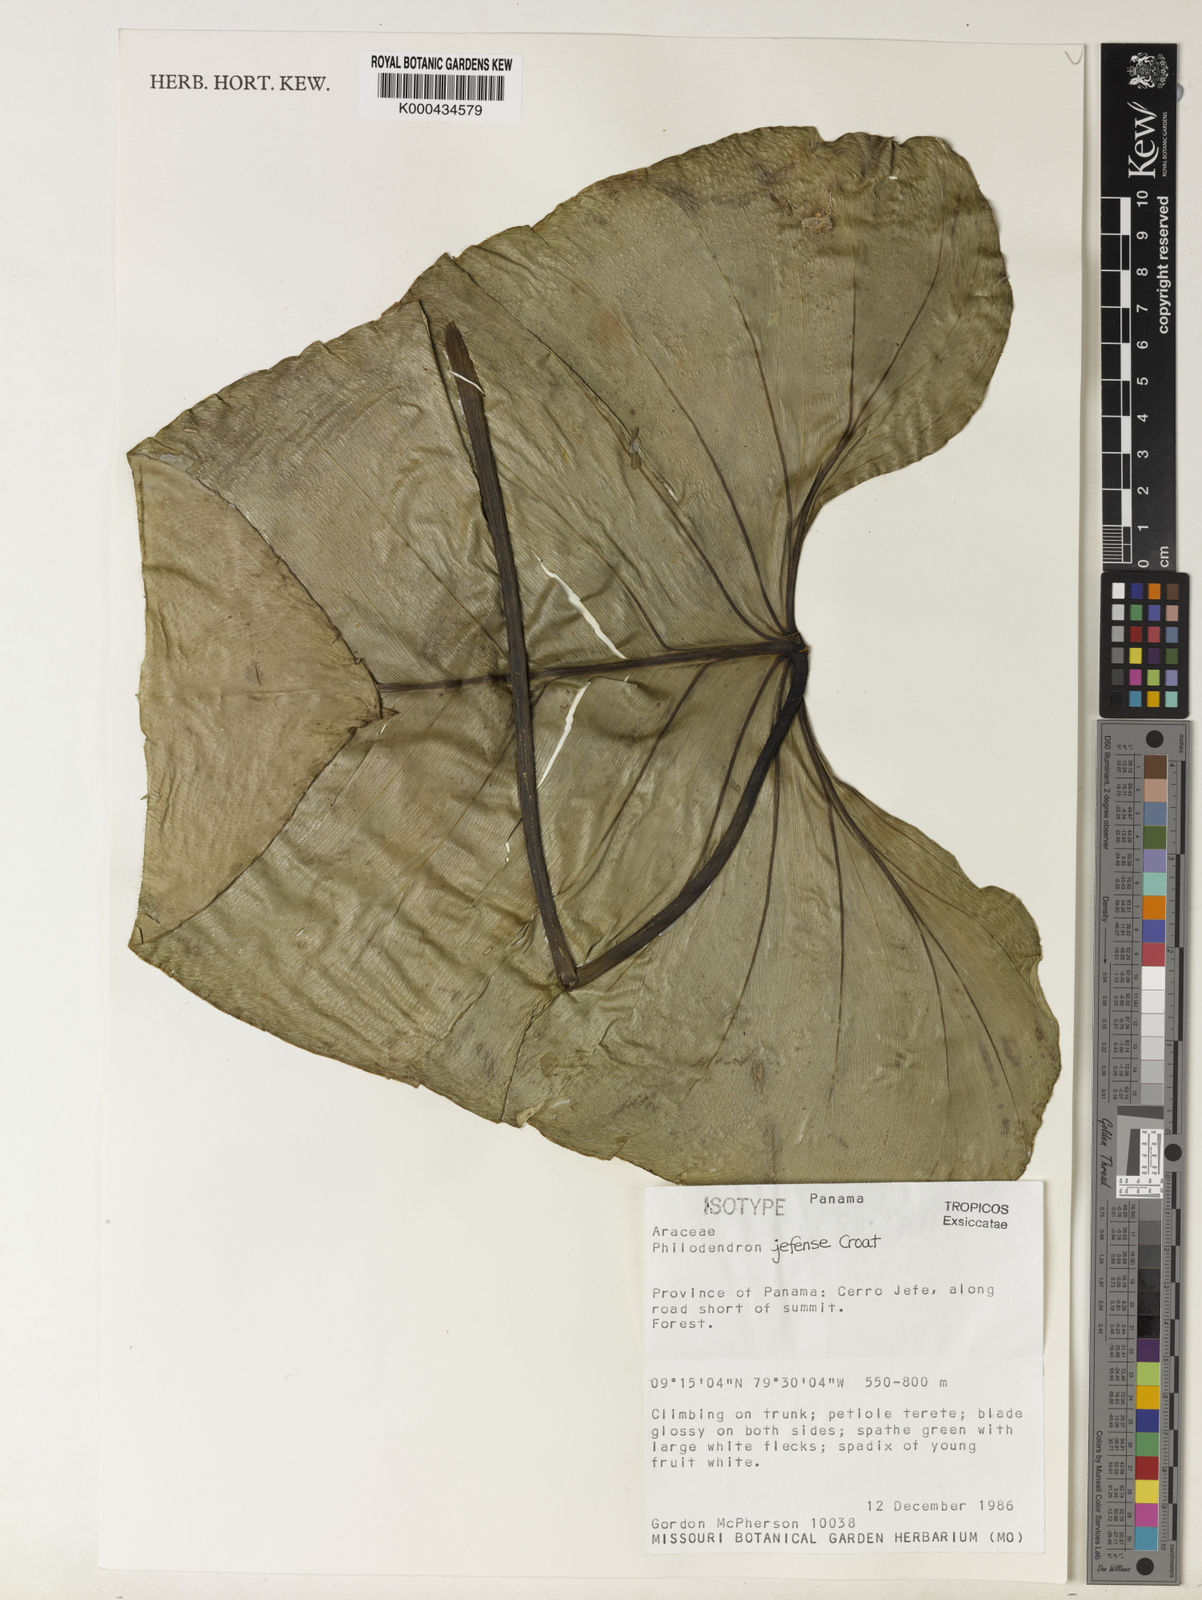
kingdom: Plantae
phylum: Tracheophyta
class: Liliopsida
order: Alismatales
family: Araceae
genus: Philodendron
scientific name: Philodendron jefense
